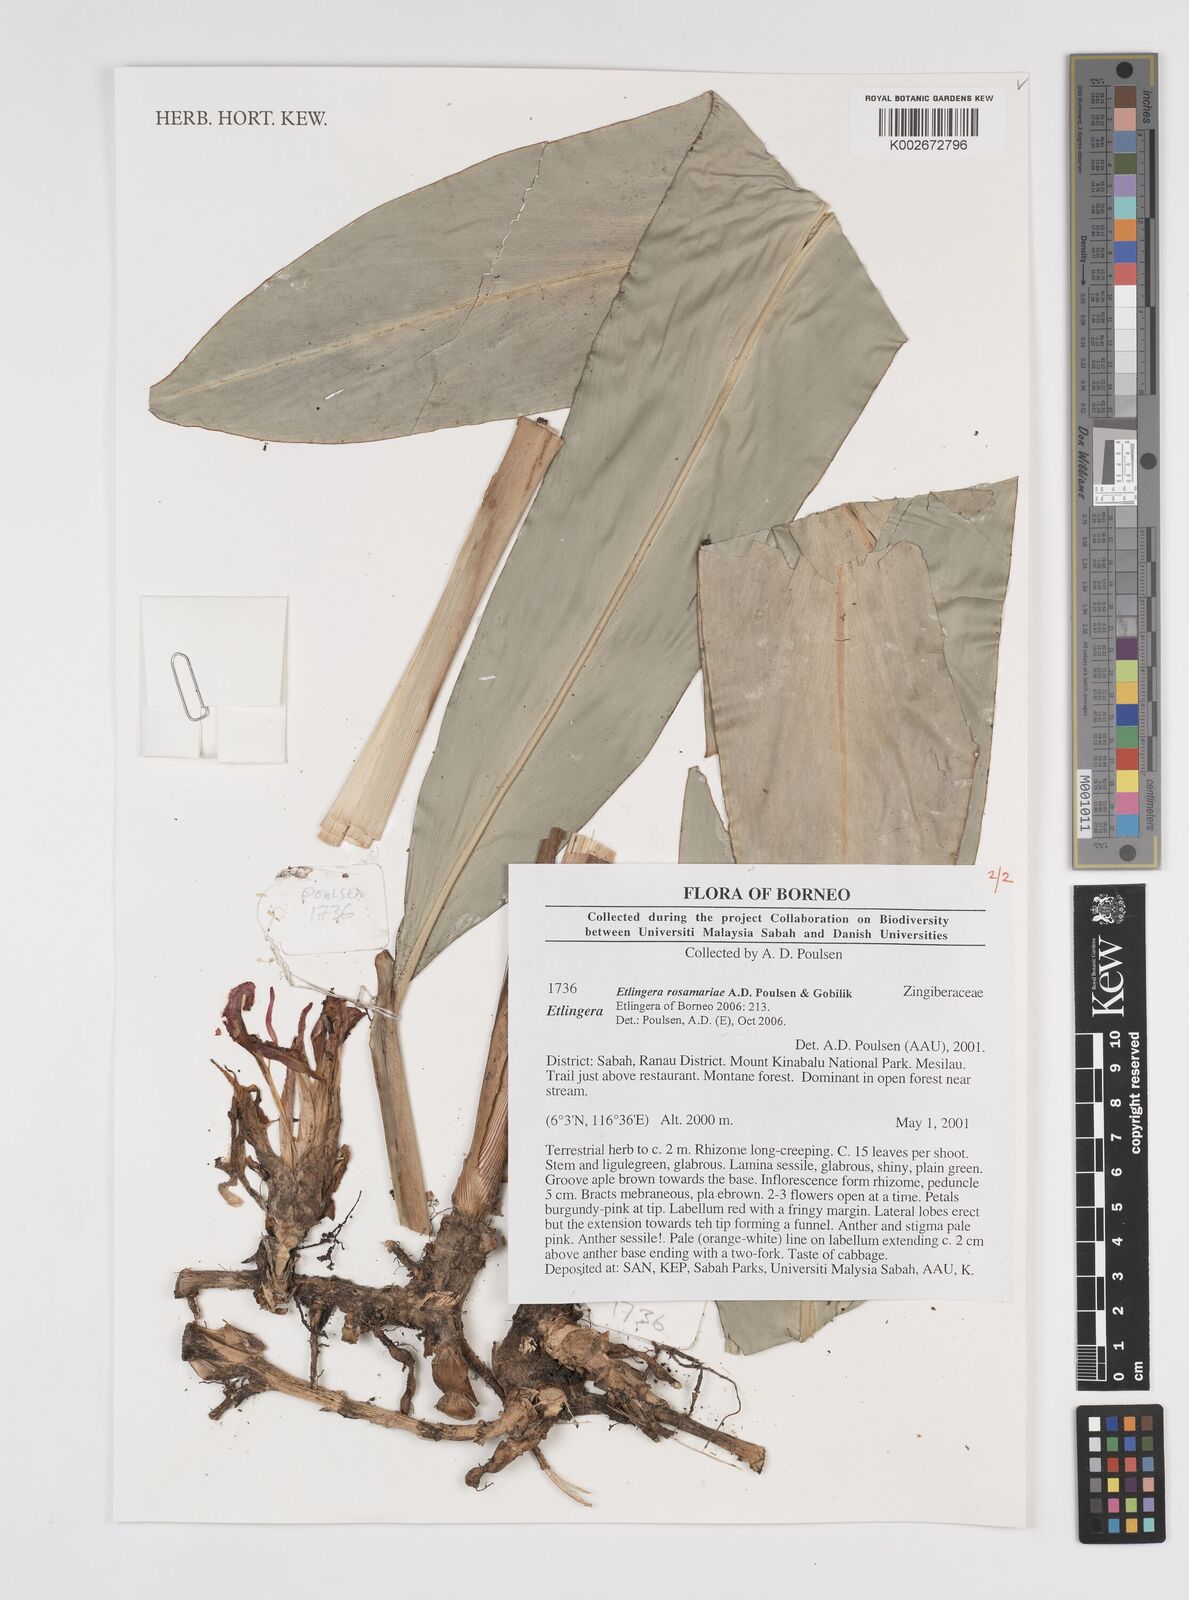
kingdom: Plantae
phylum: Tracheophyta
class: Liliopsida
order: Zingiberales
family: Zingiberaceae
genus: Etlingera
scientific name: Etlingera rosamariae
